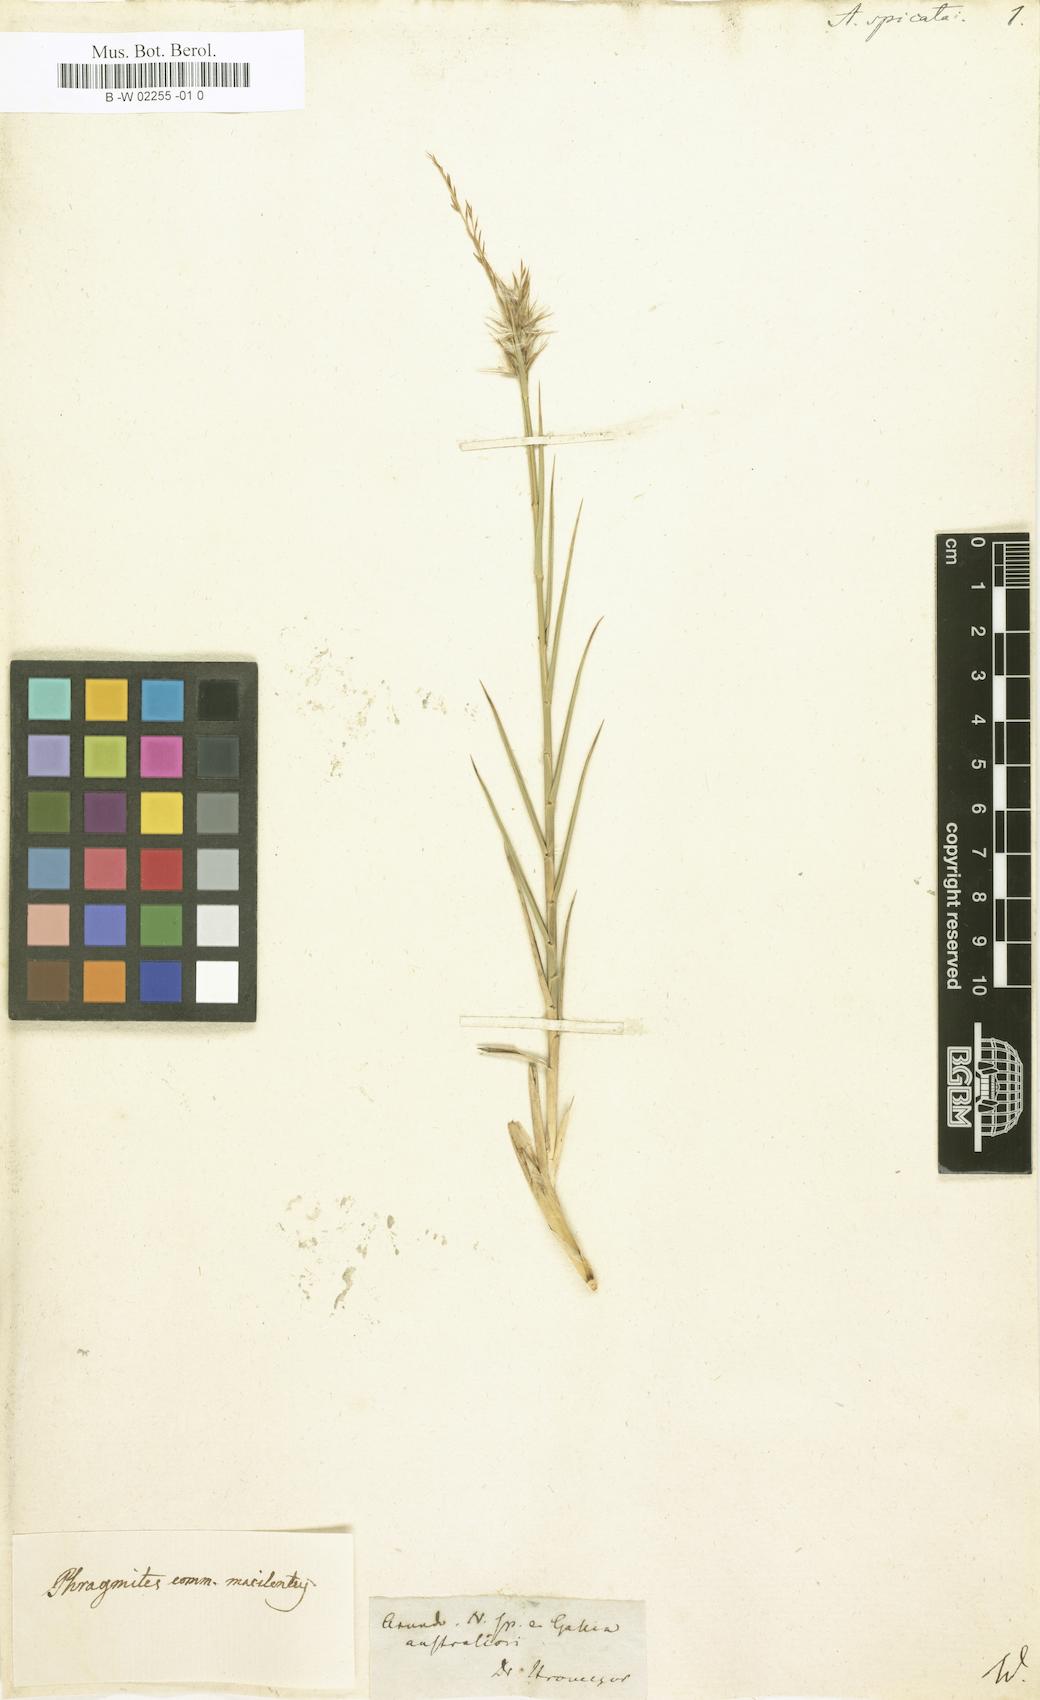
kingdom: Plantae
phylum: Tracheophyta
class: Liliopsida
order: Poales
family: Poaceae
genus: Arundo
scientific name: Arundo
